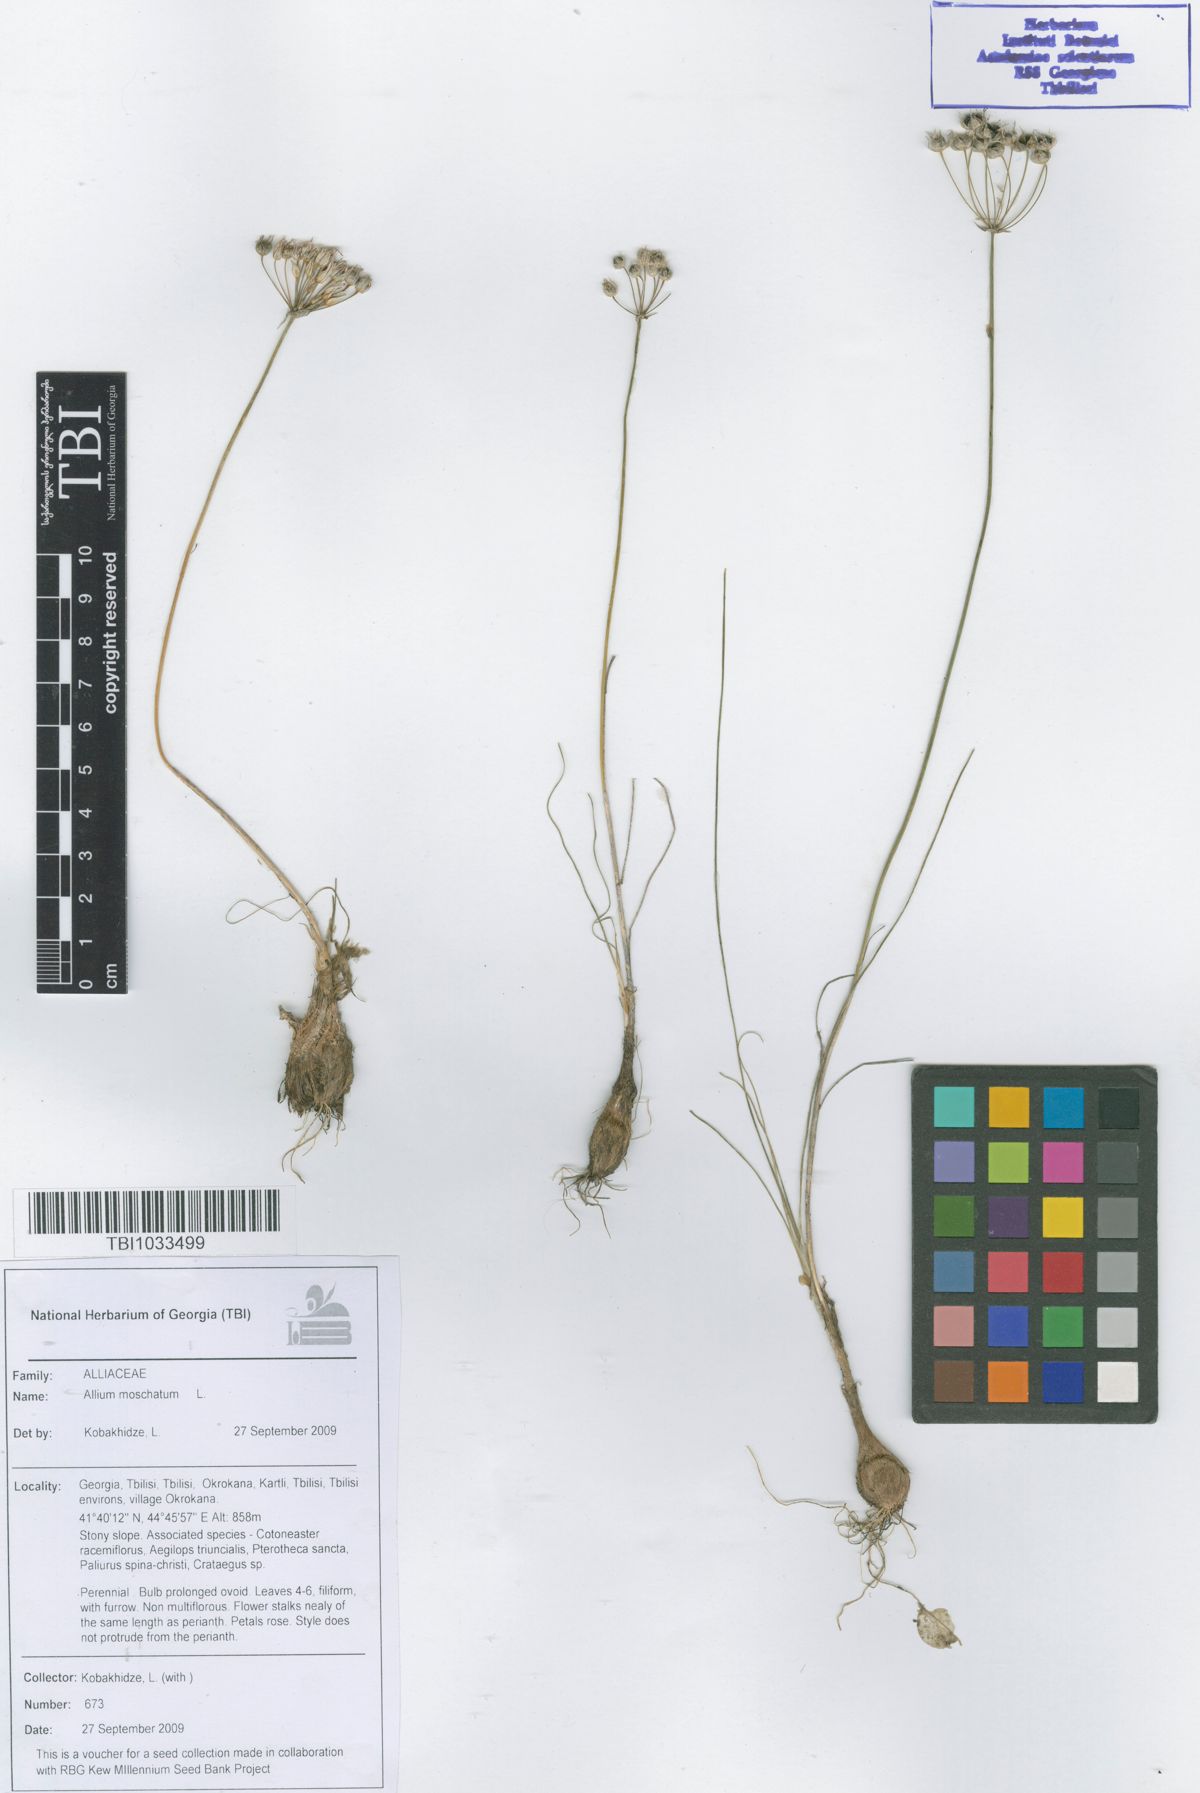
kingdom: Plantae
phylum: Tracheophyta
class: Liliopsida
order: Asparagales
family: Amaryllidaceae
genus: Allium
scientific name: Allium moschatum
